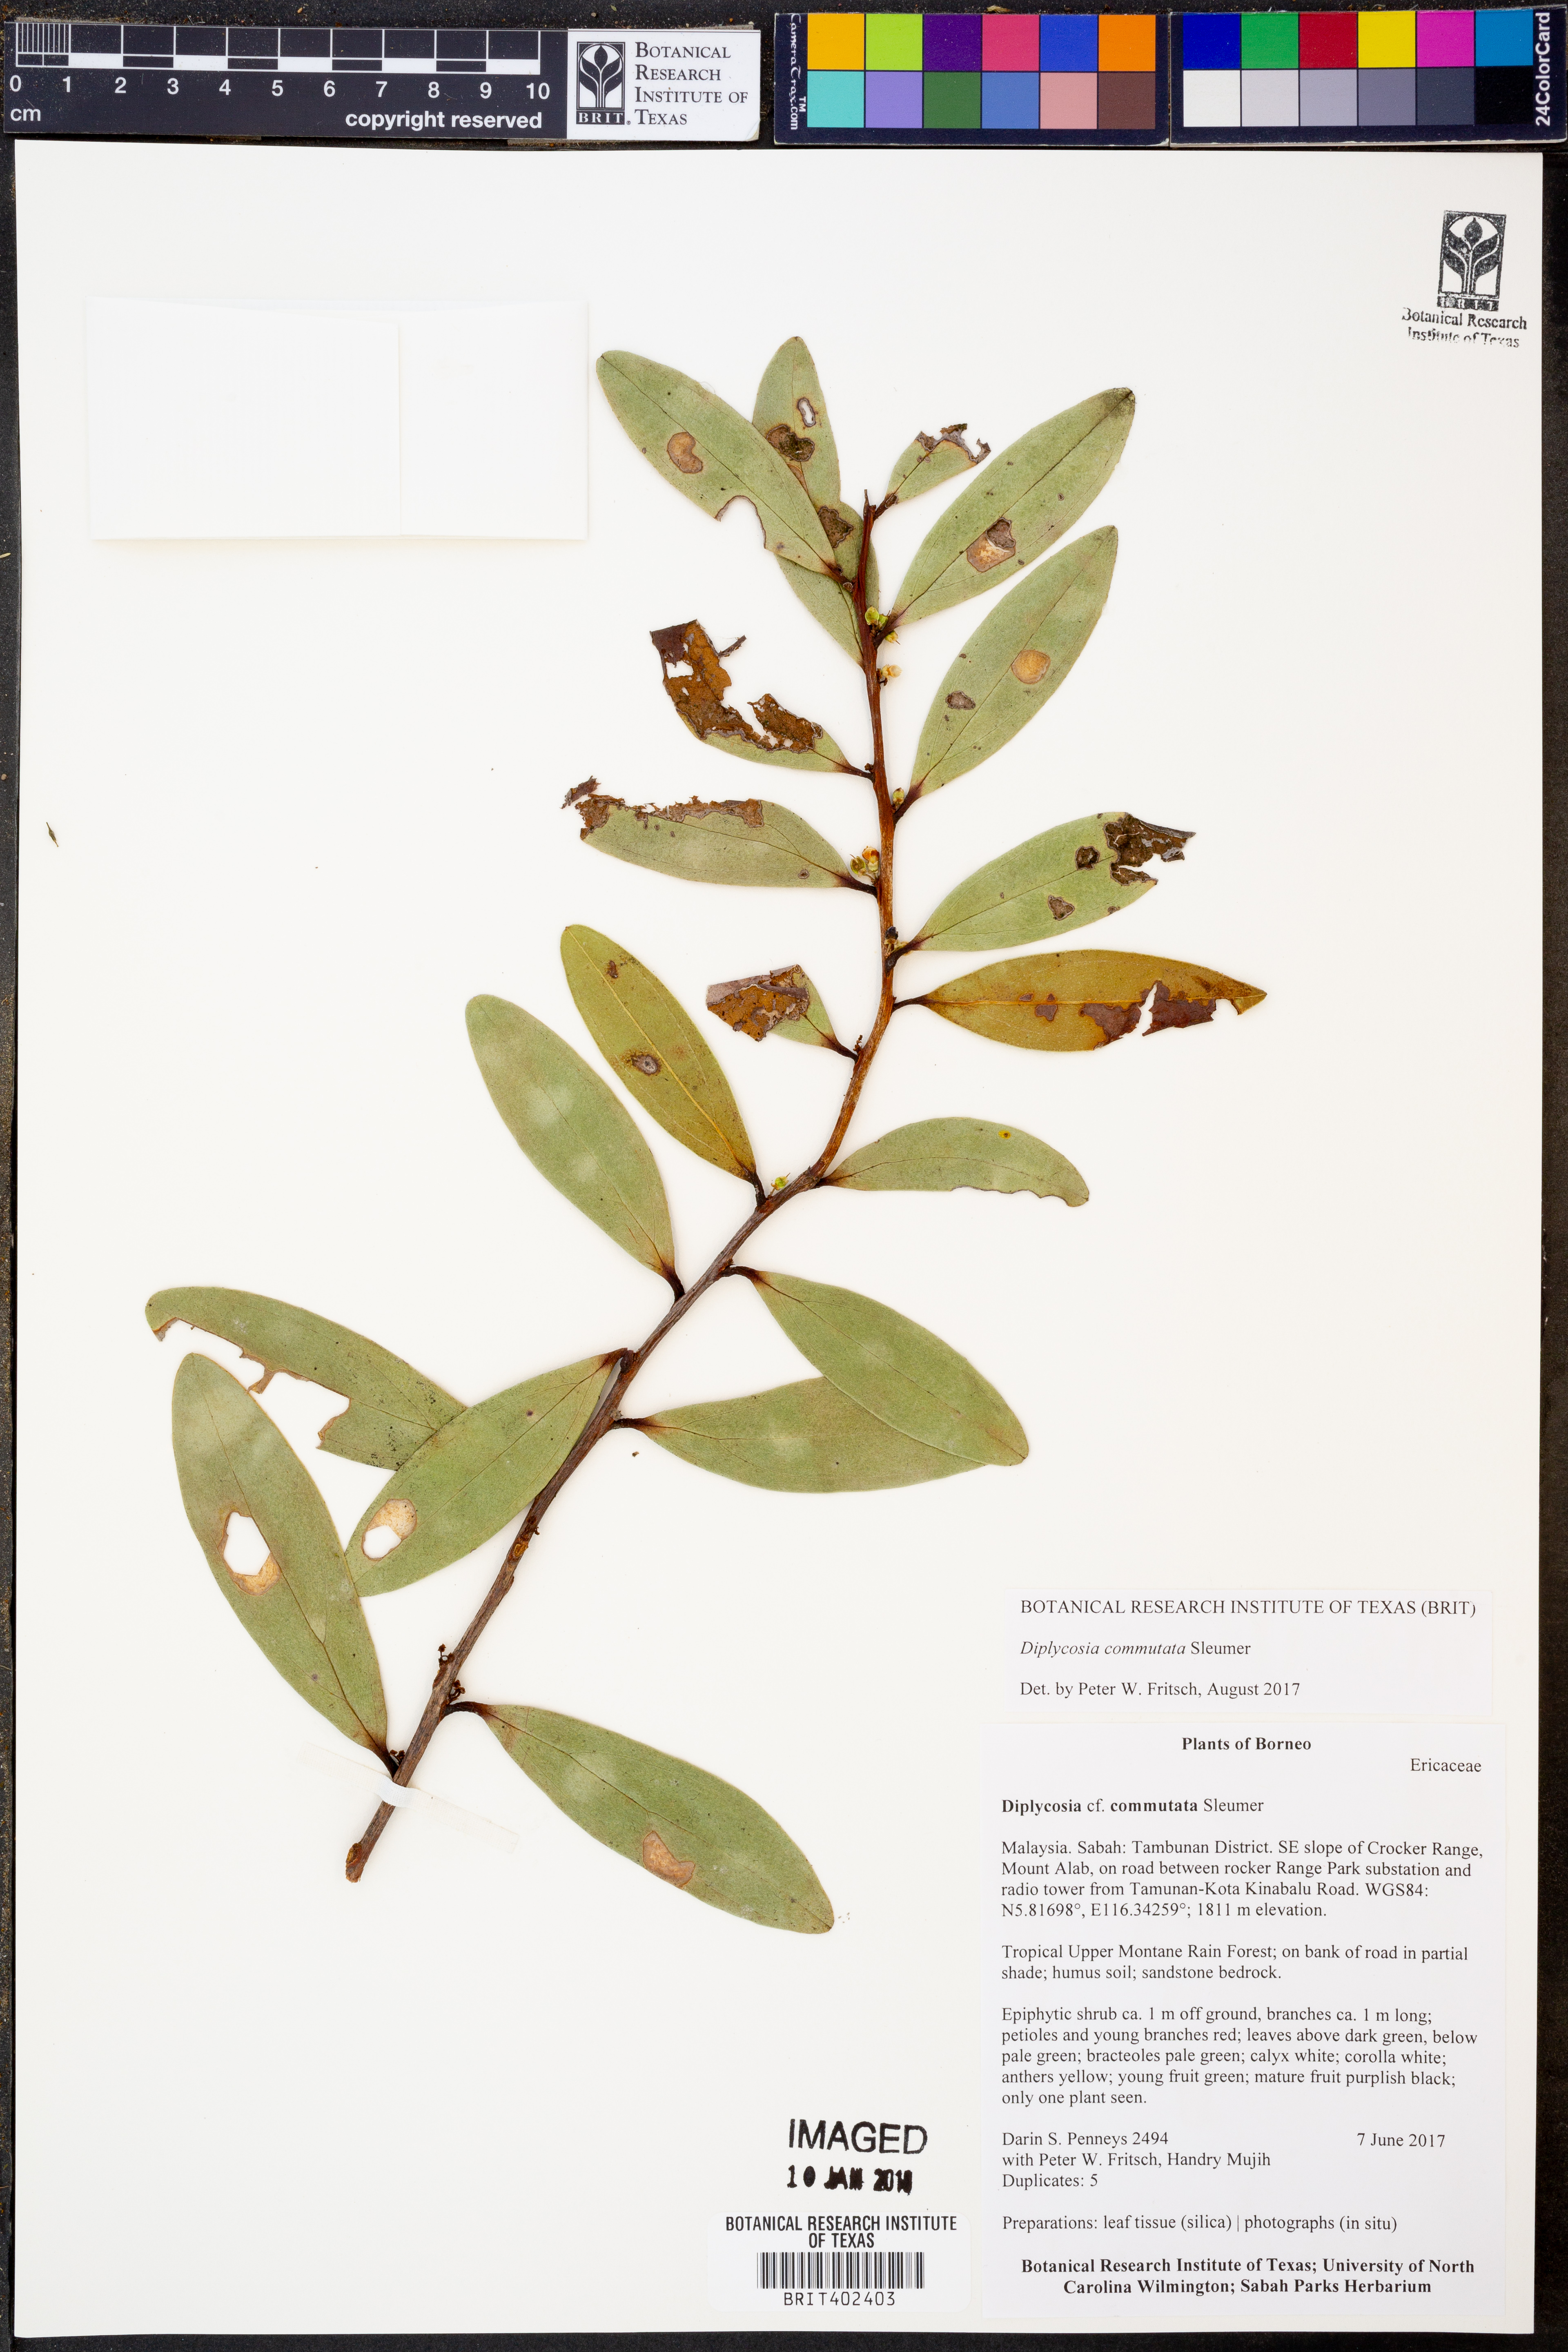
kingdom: Plantae
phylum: Tracheophyta
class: Magnoliopsida
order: Ericales
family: Ericaceae
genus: Gaultheria
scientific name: Gaultheria commutata
